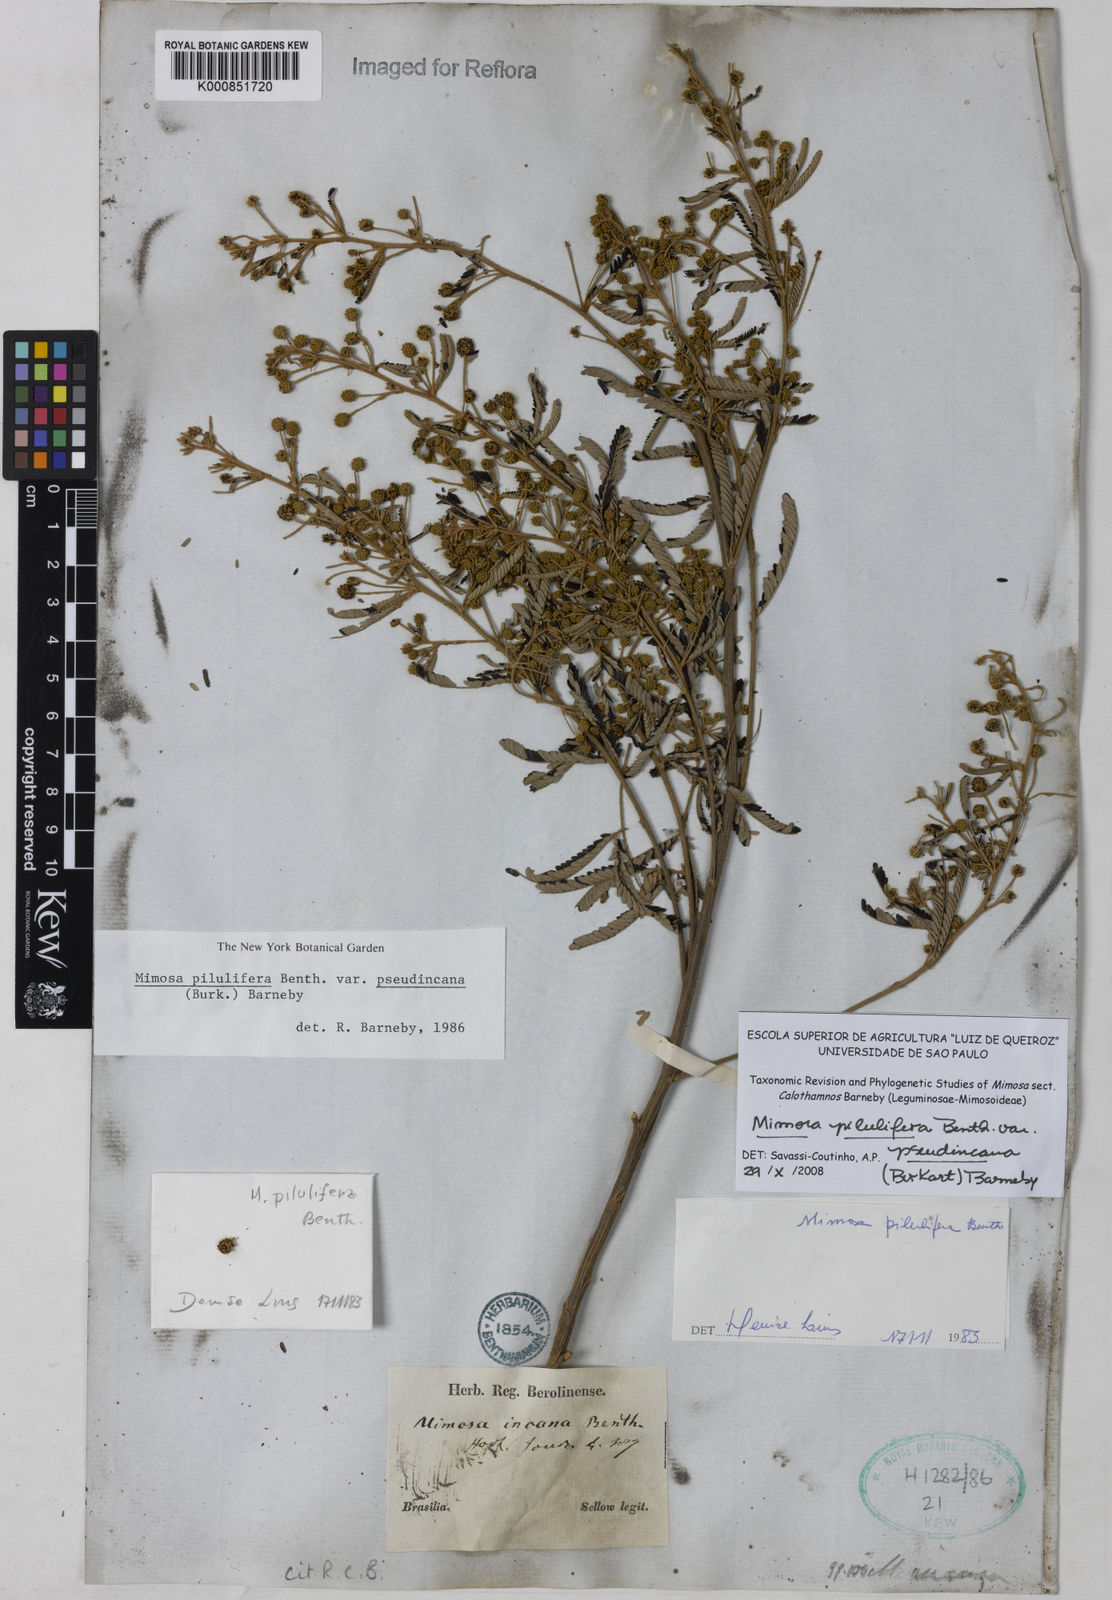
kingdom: Plantae
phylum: Tracheophyta
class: Magnoliopsida
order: Fabales
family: Fabaceae
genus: Mimosa
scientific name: Mimosa pilulifera
